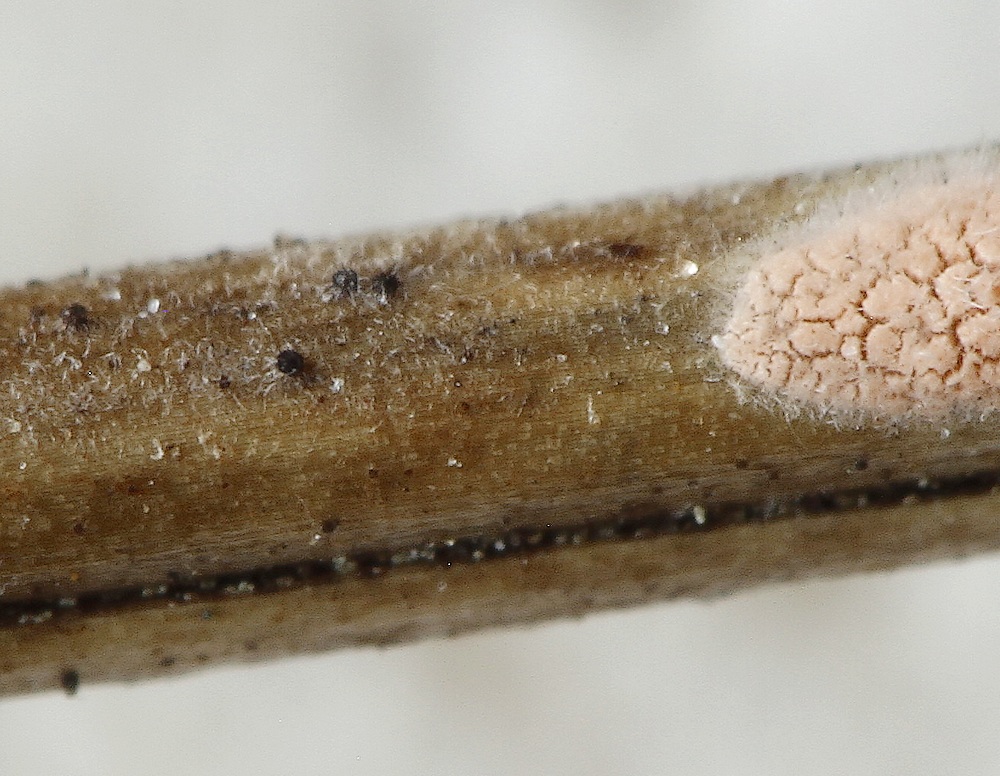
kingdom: Fungi
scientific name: Fungi
